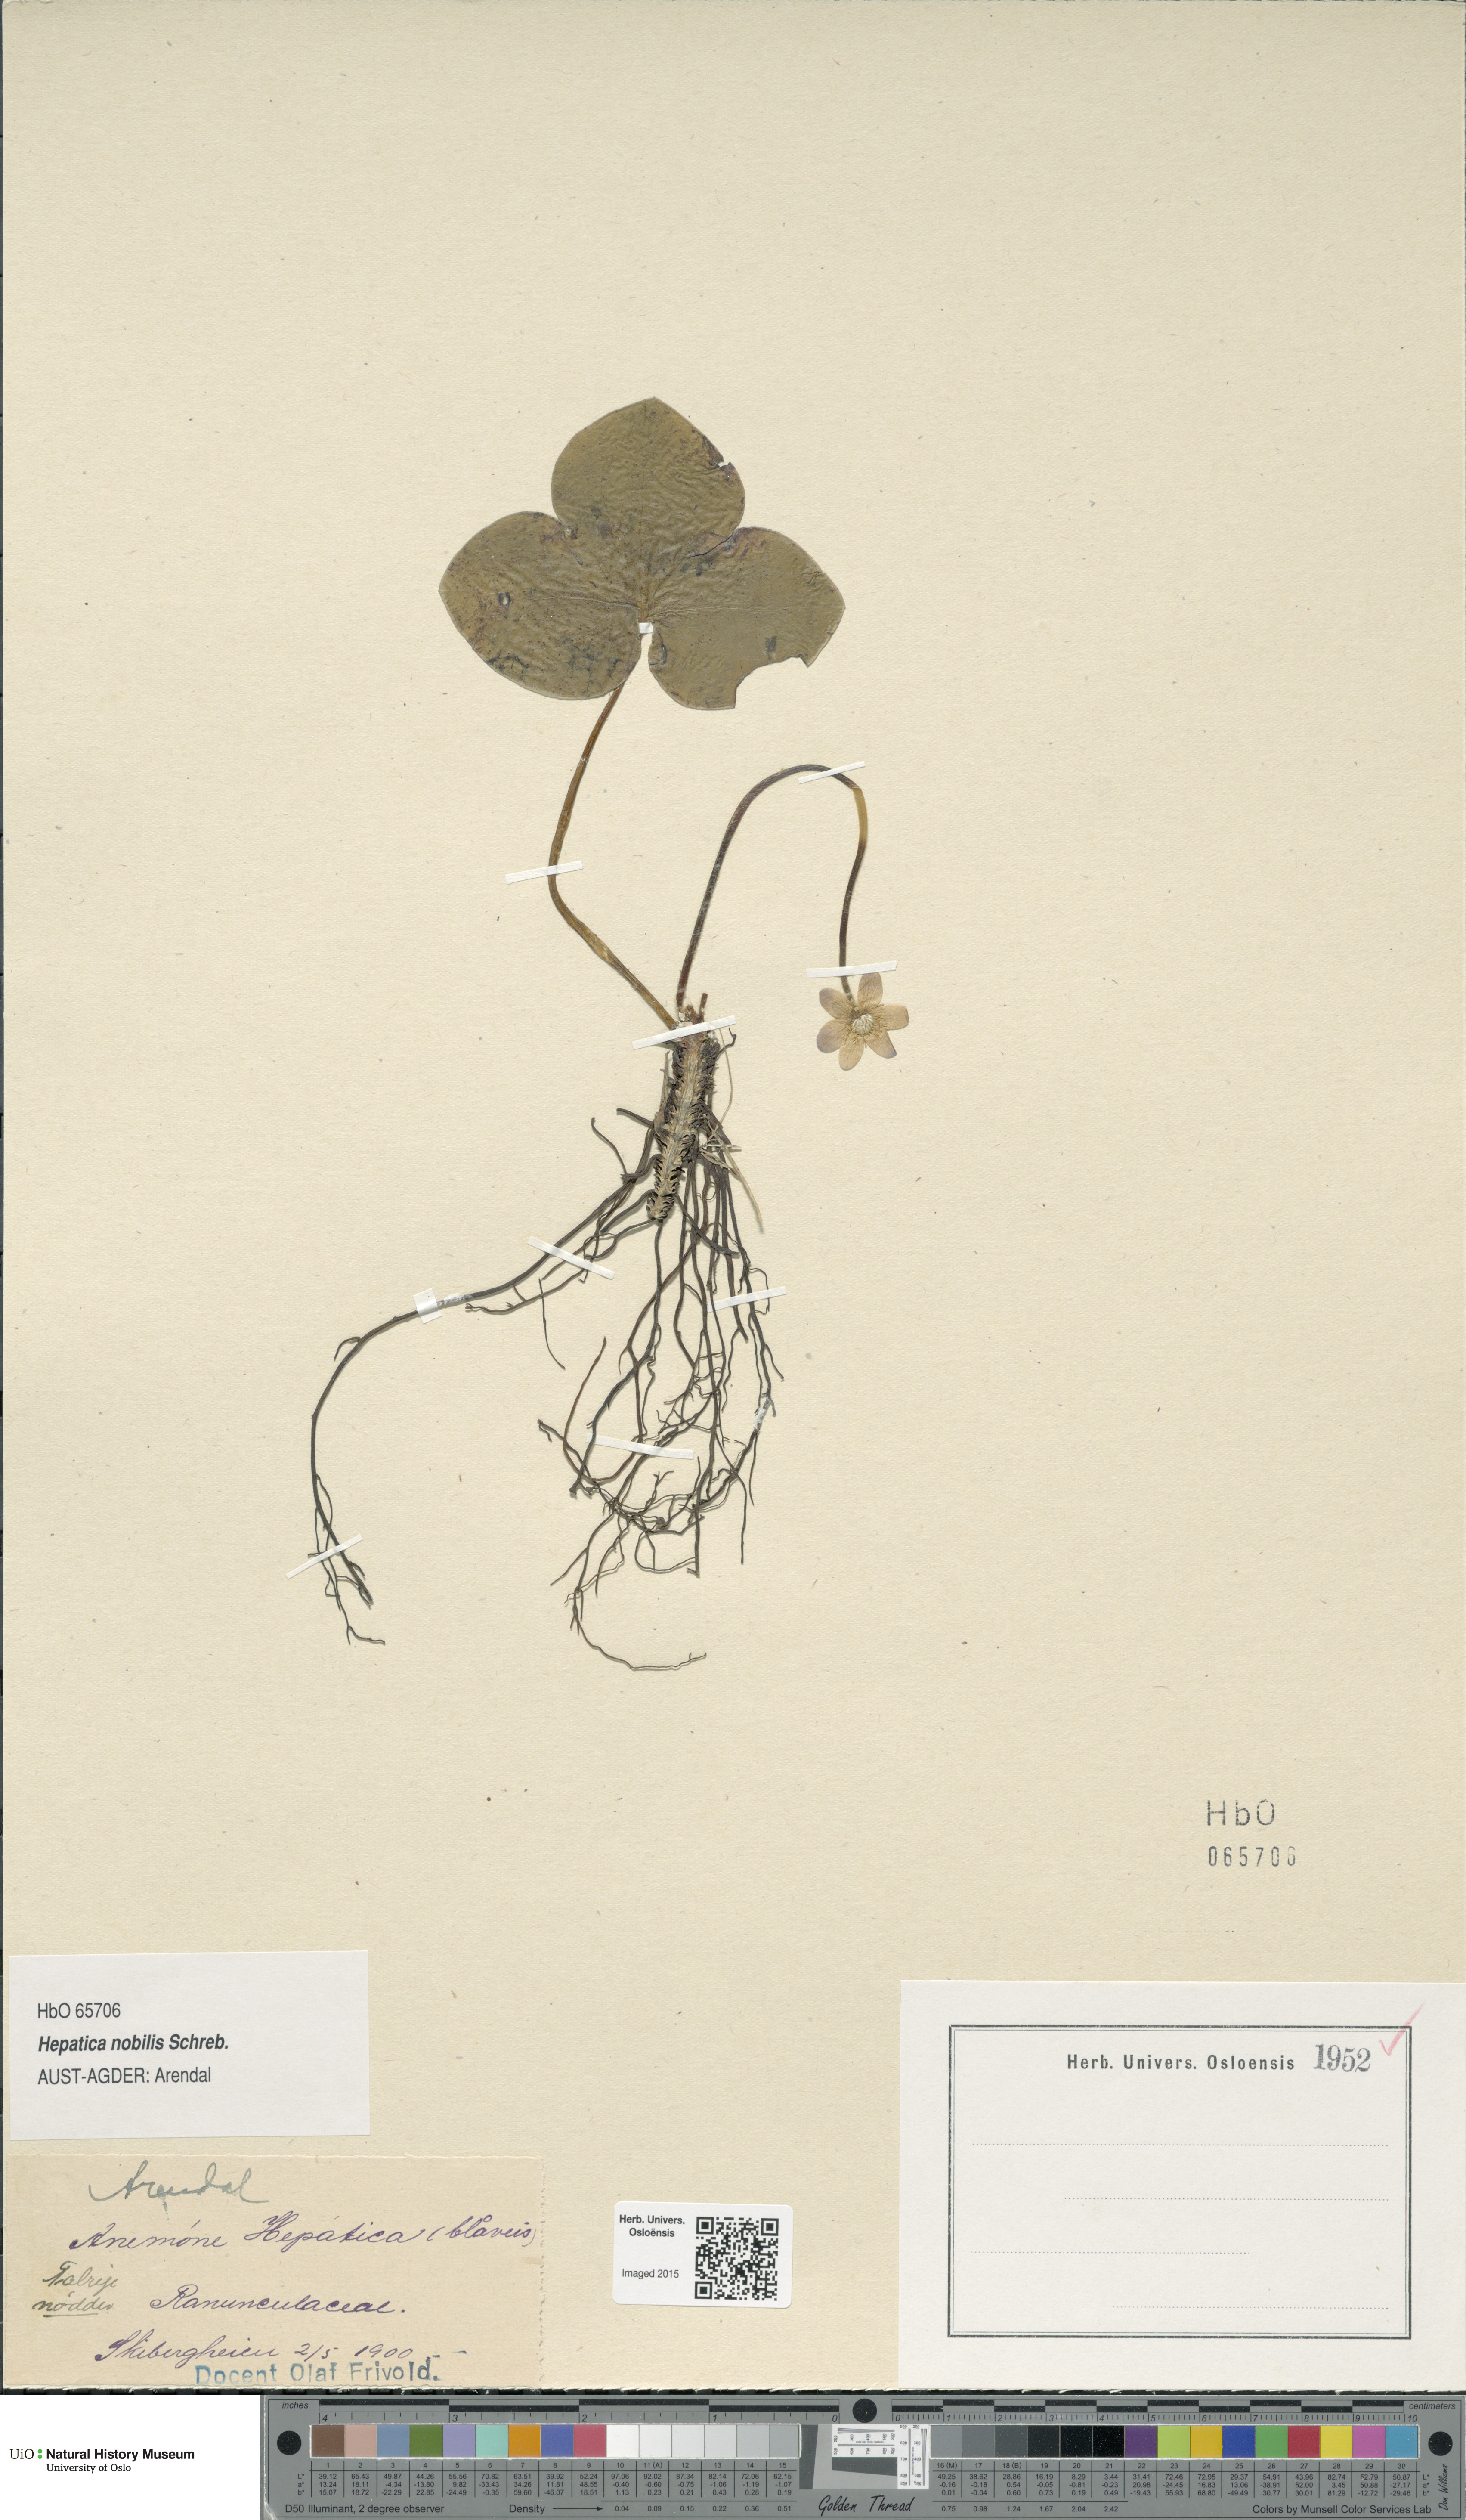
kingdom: Plantae
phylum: Tracheophyta
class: Magnoliopsida
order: Ranunculales
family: Ranunculaceae
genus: Hepatica
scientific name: Hepatica nobilis
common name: Liverleaf
